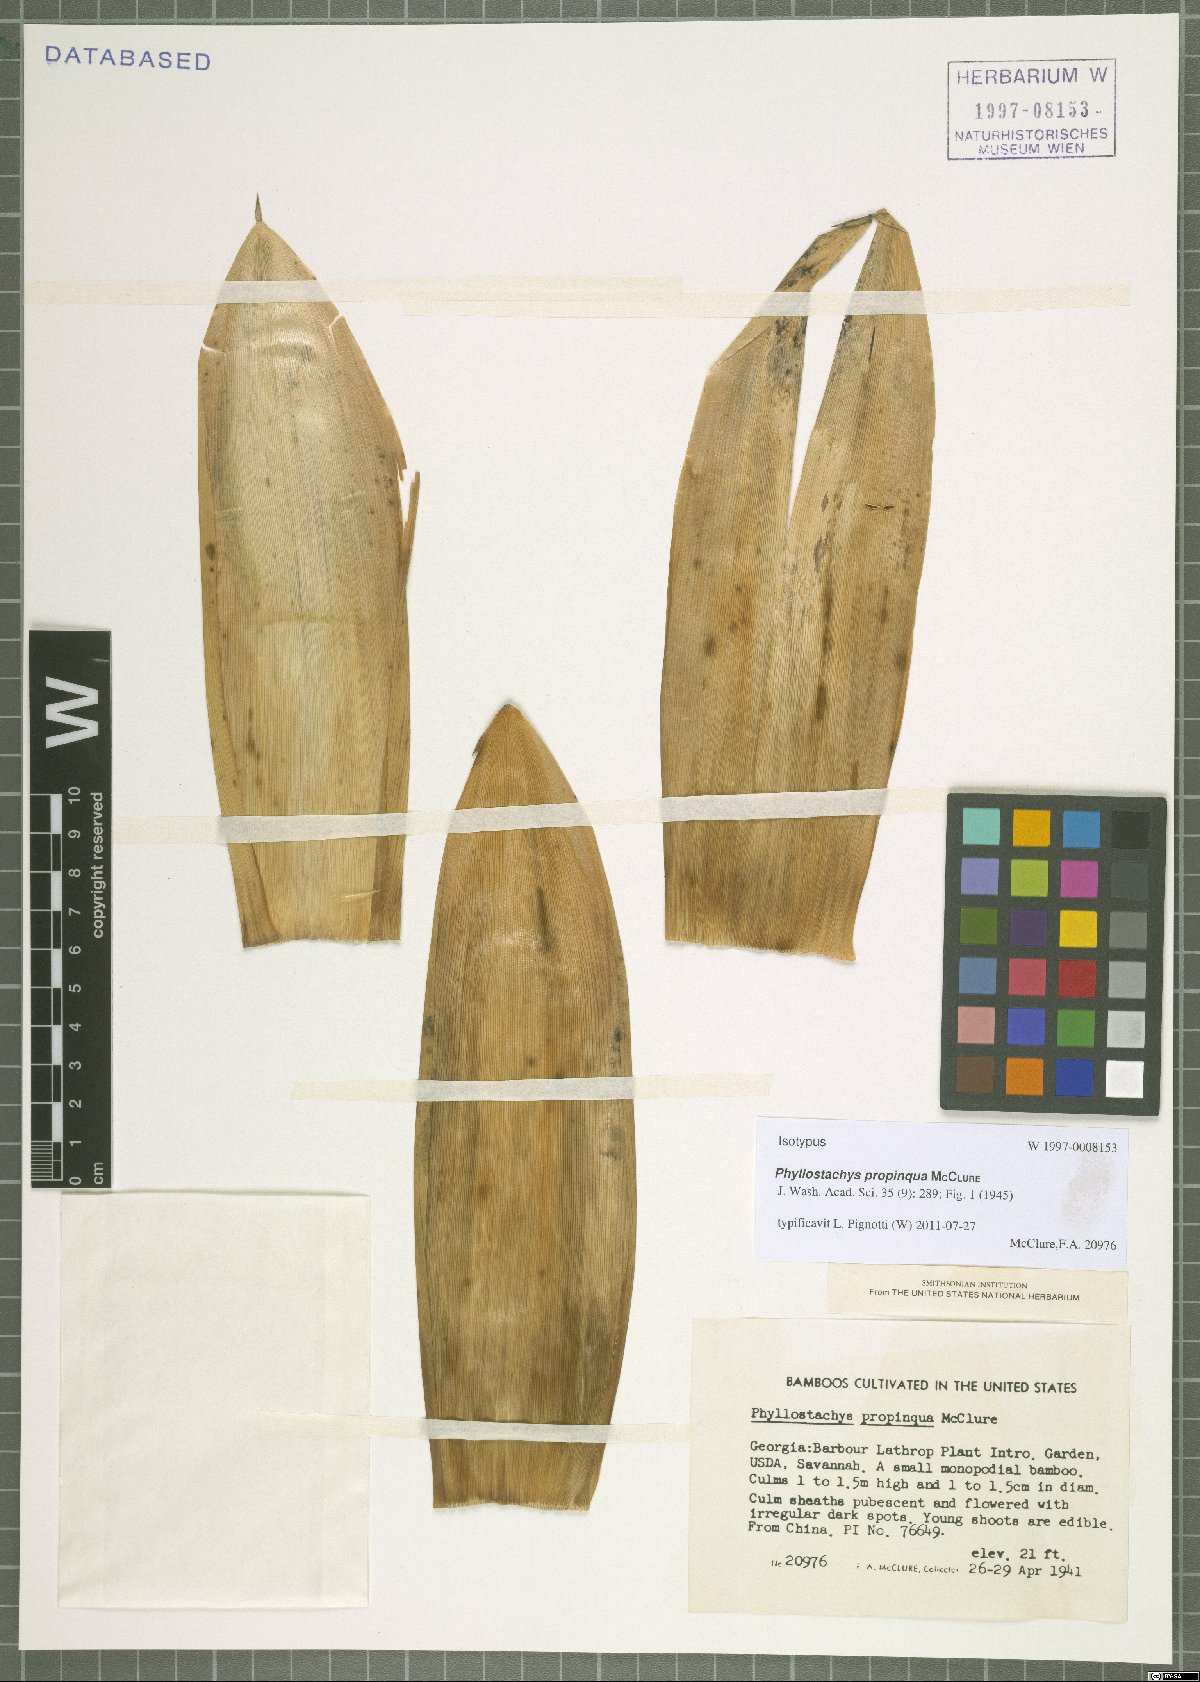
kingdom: Plantae
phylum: Tracheophyta
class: Liliopsida
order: Poales
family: Poaceae
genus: Phyllostachys
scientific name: Phyllostachys propinqua
